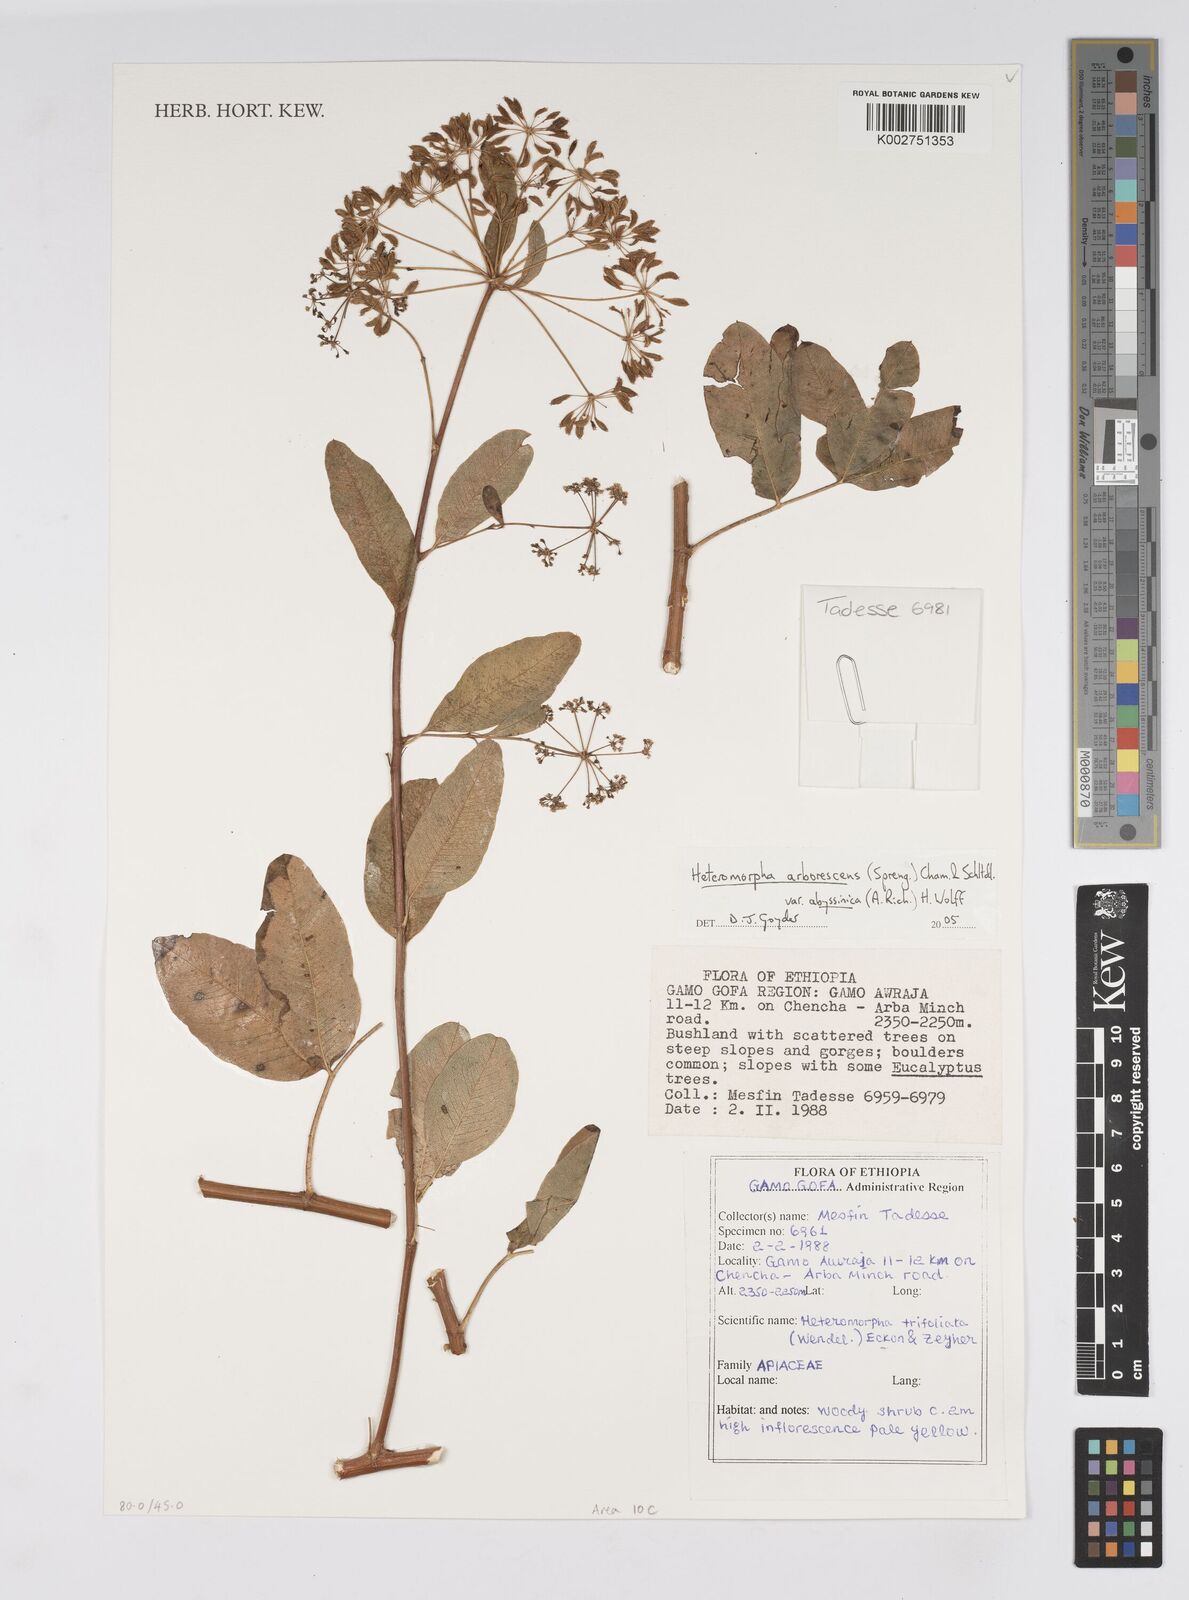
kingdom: Plantae
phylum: Tracheophyta
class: Magnoliopsida
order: Apiales
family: Apiaceae
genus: Heteromorpha
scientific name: Heteromorpha
